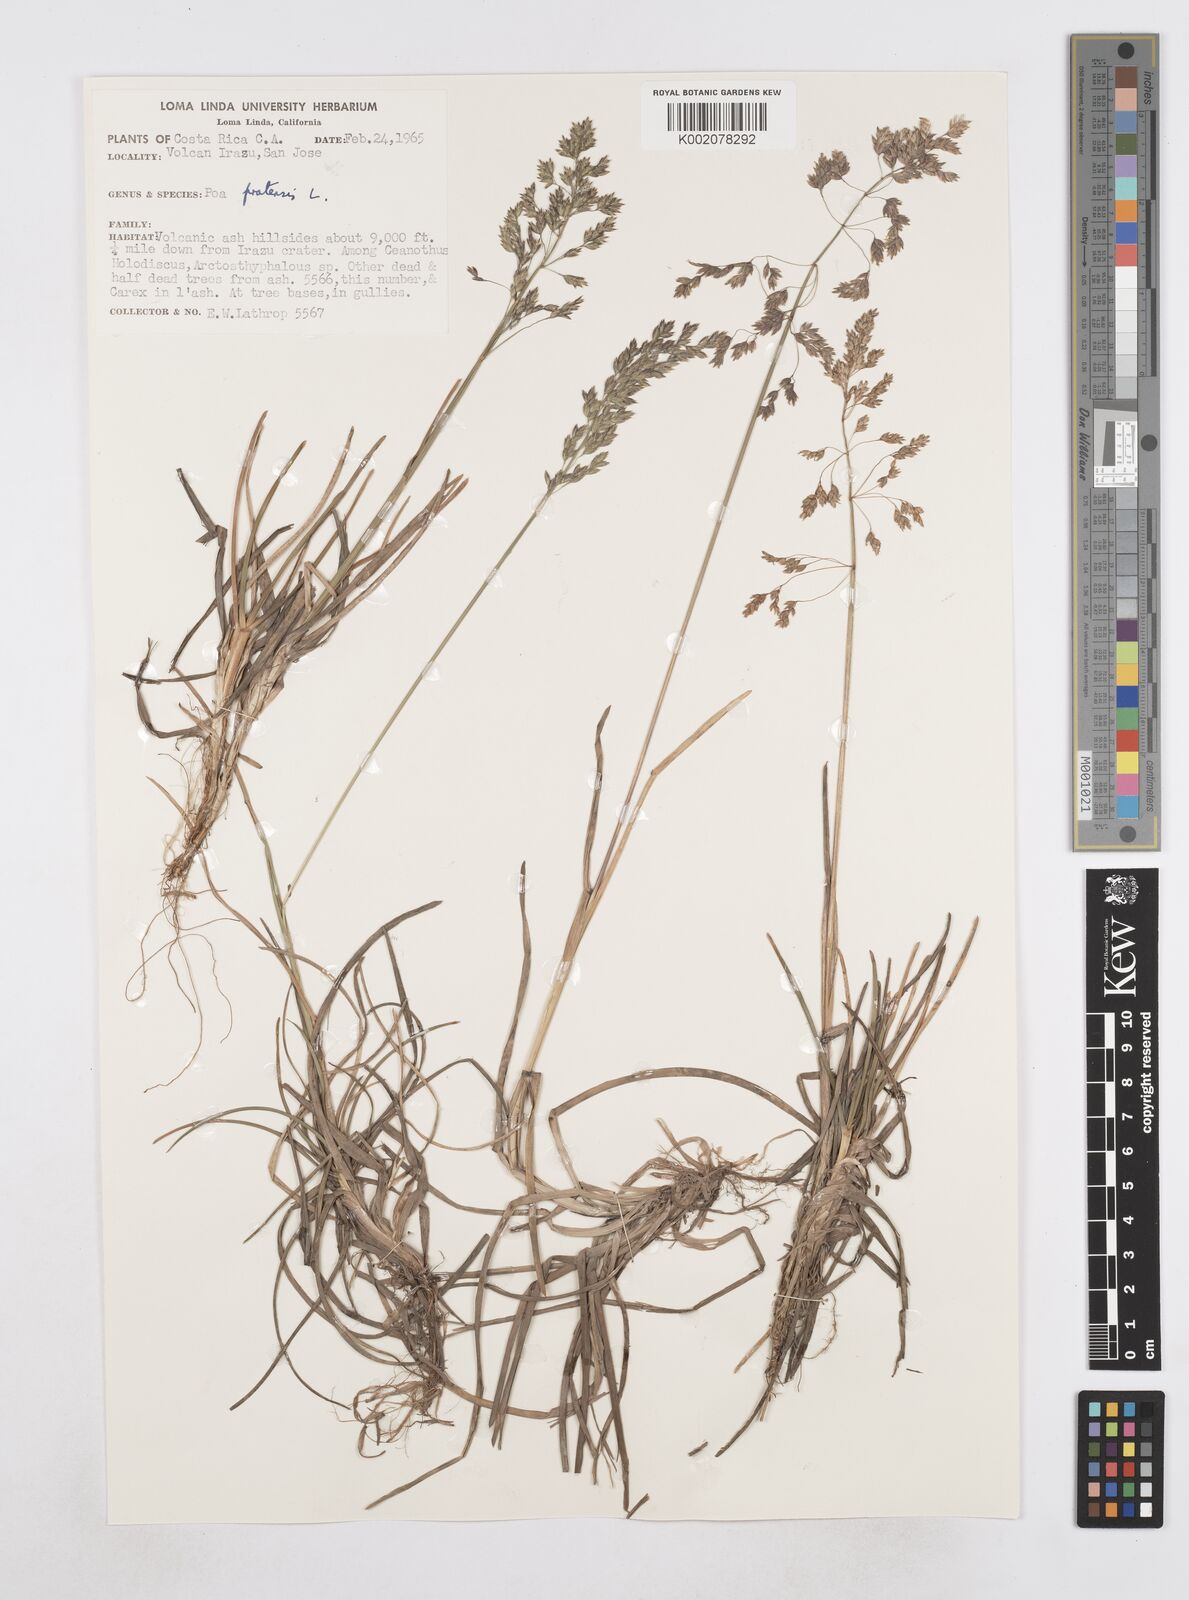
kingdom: Plantae
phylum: Tracheophyta
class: Liliopsida
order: Poales
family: Poaceae
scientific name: Poaceae
